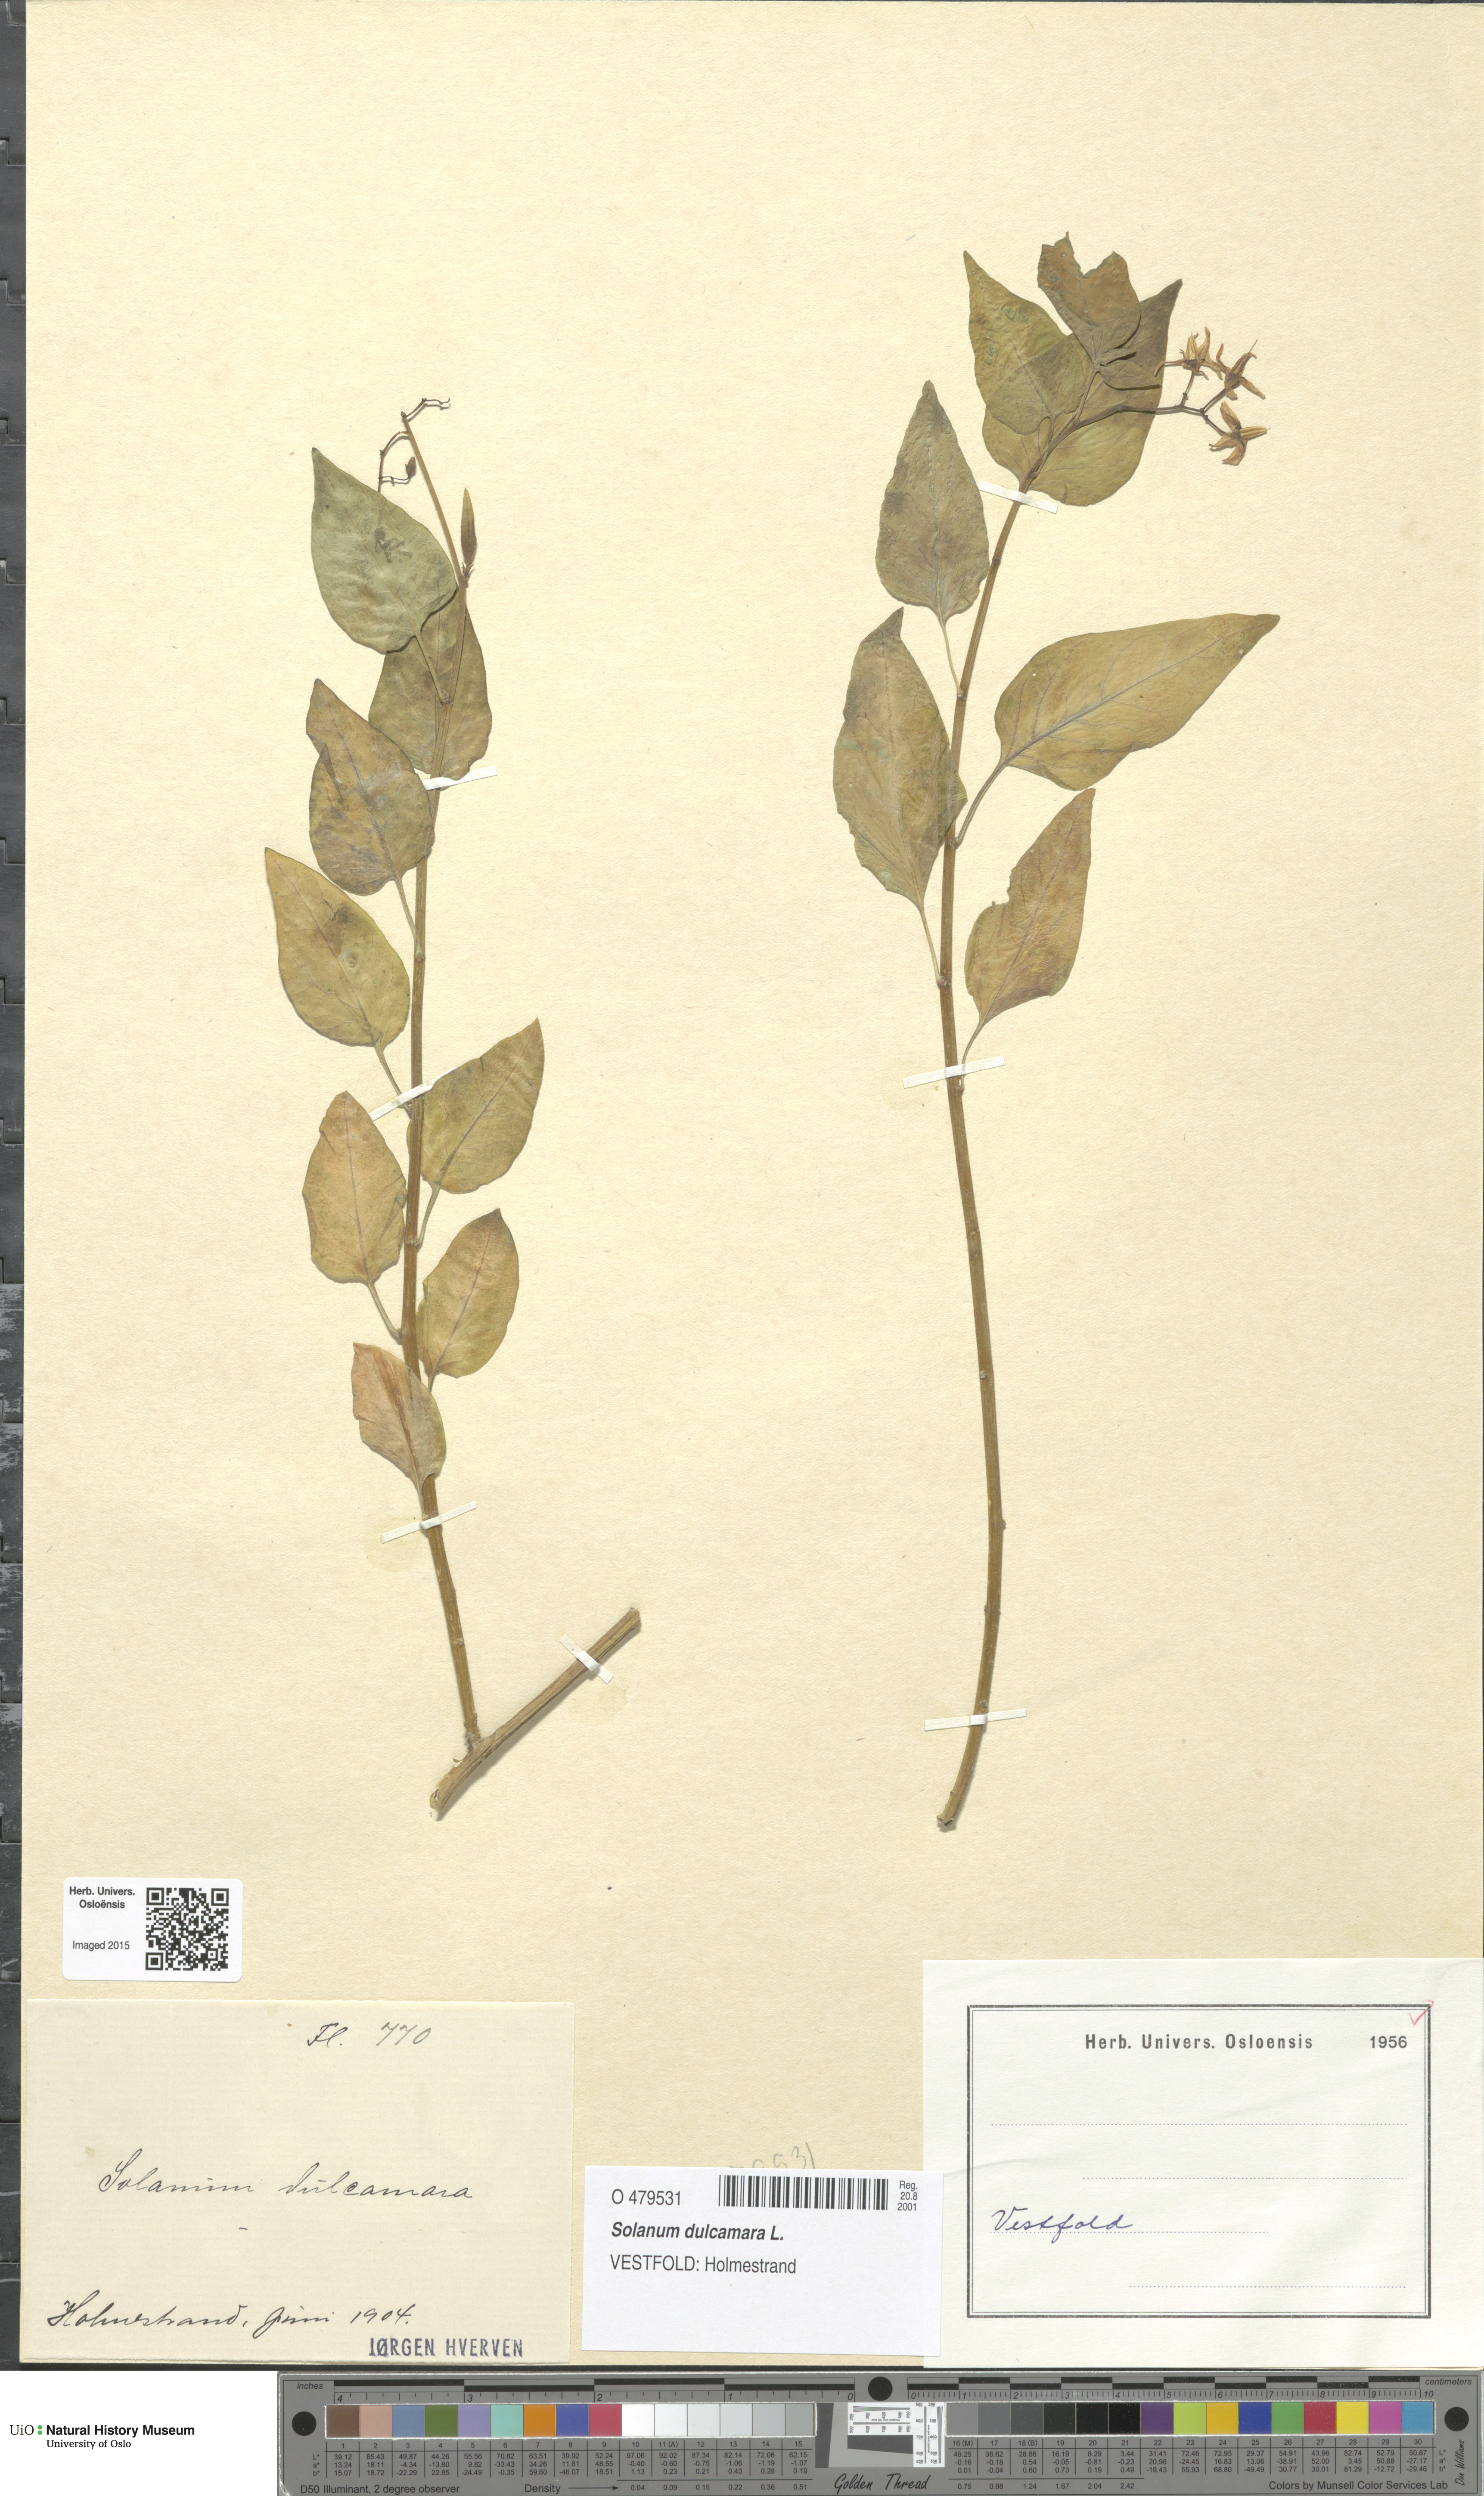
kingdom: Plantae
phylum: Tracheophyta
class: Magnoliopsida
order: Solanales
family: Solanaceae
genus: Solanum
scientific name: Solanum dulcamara
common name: Climbing nightshade
